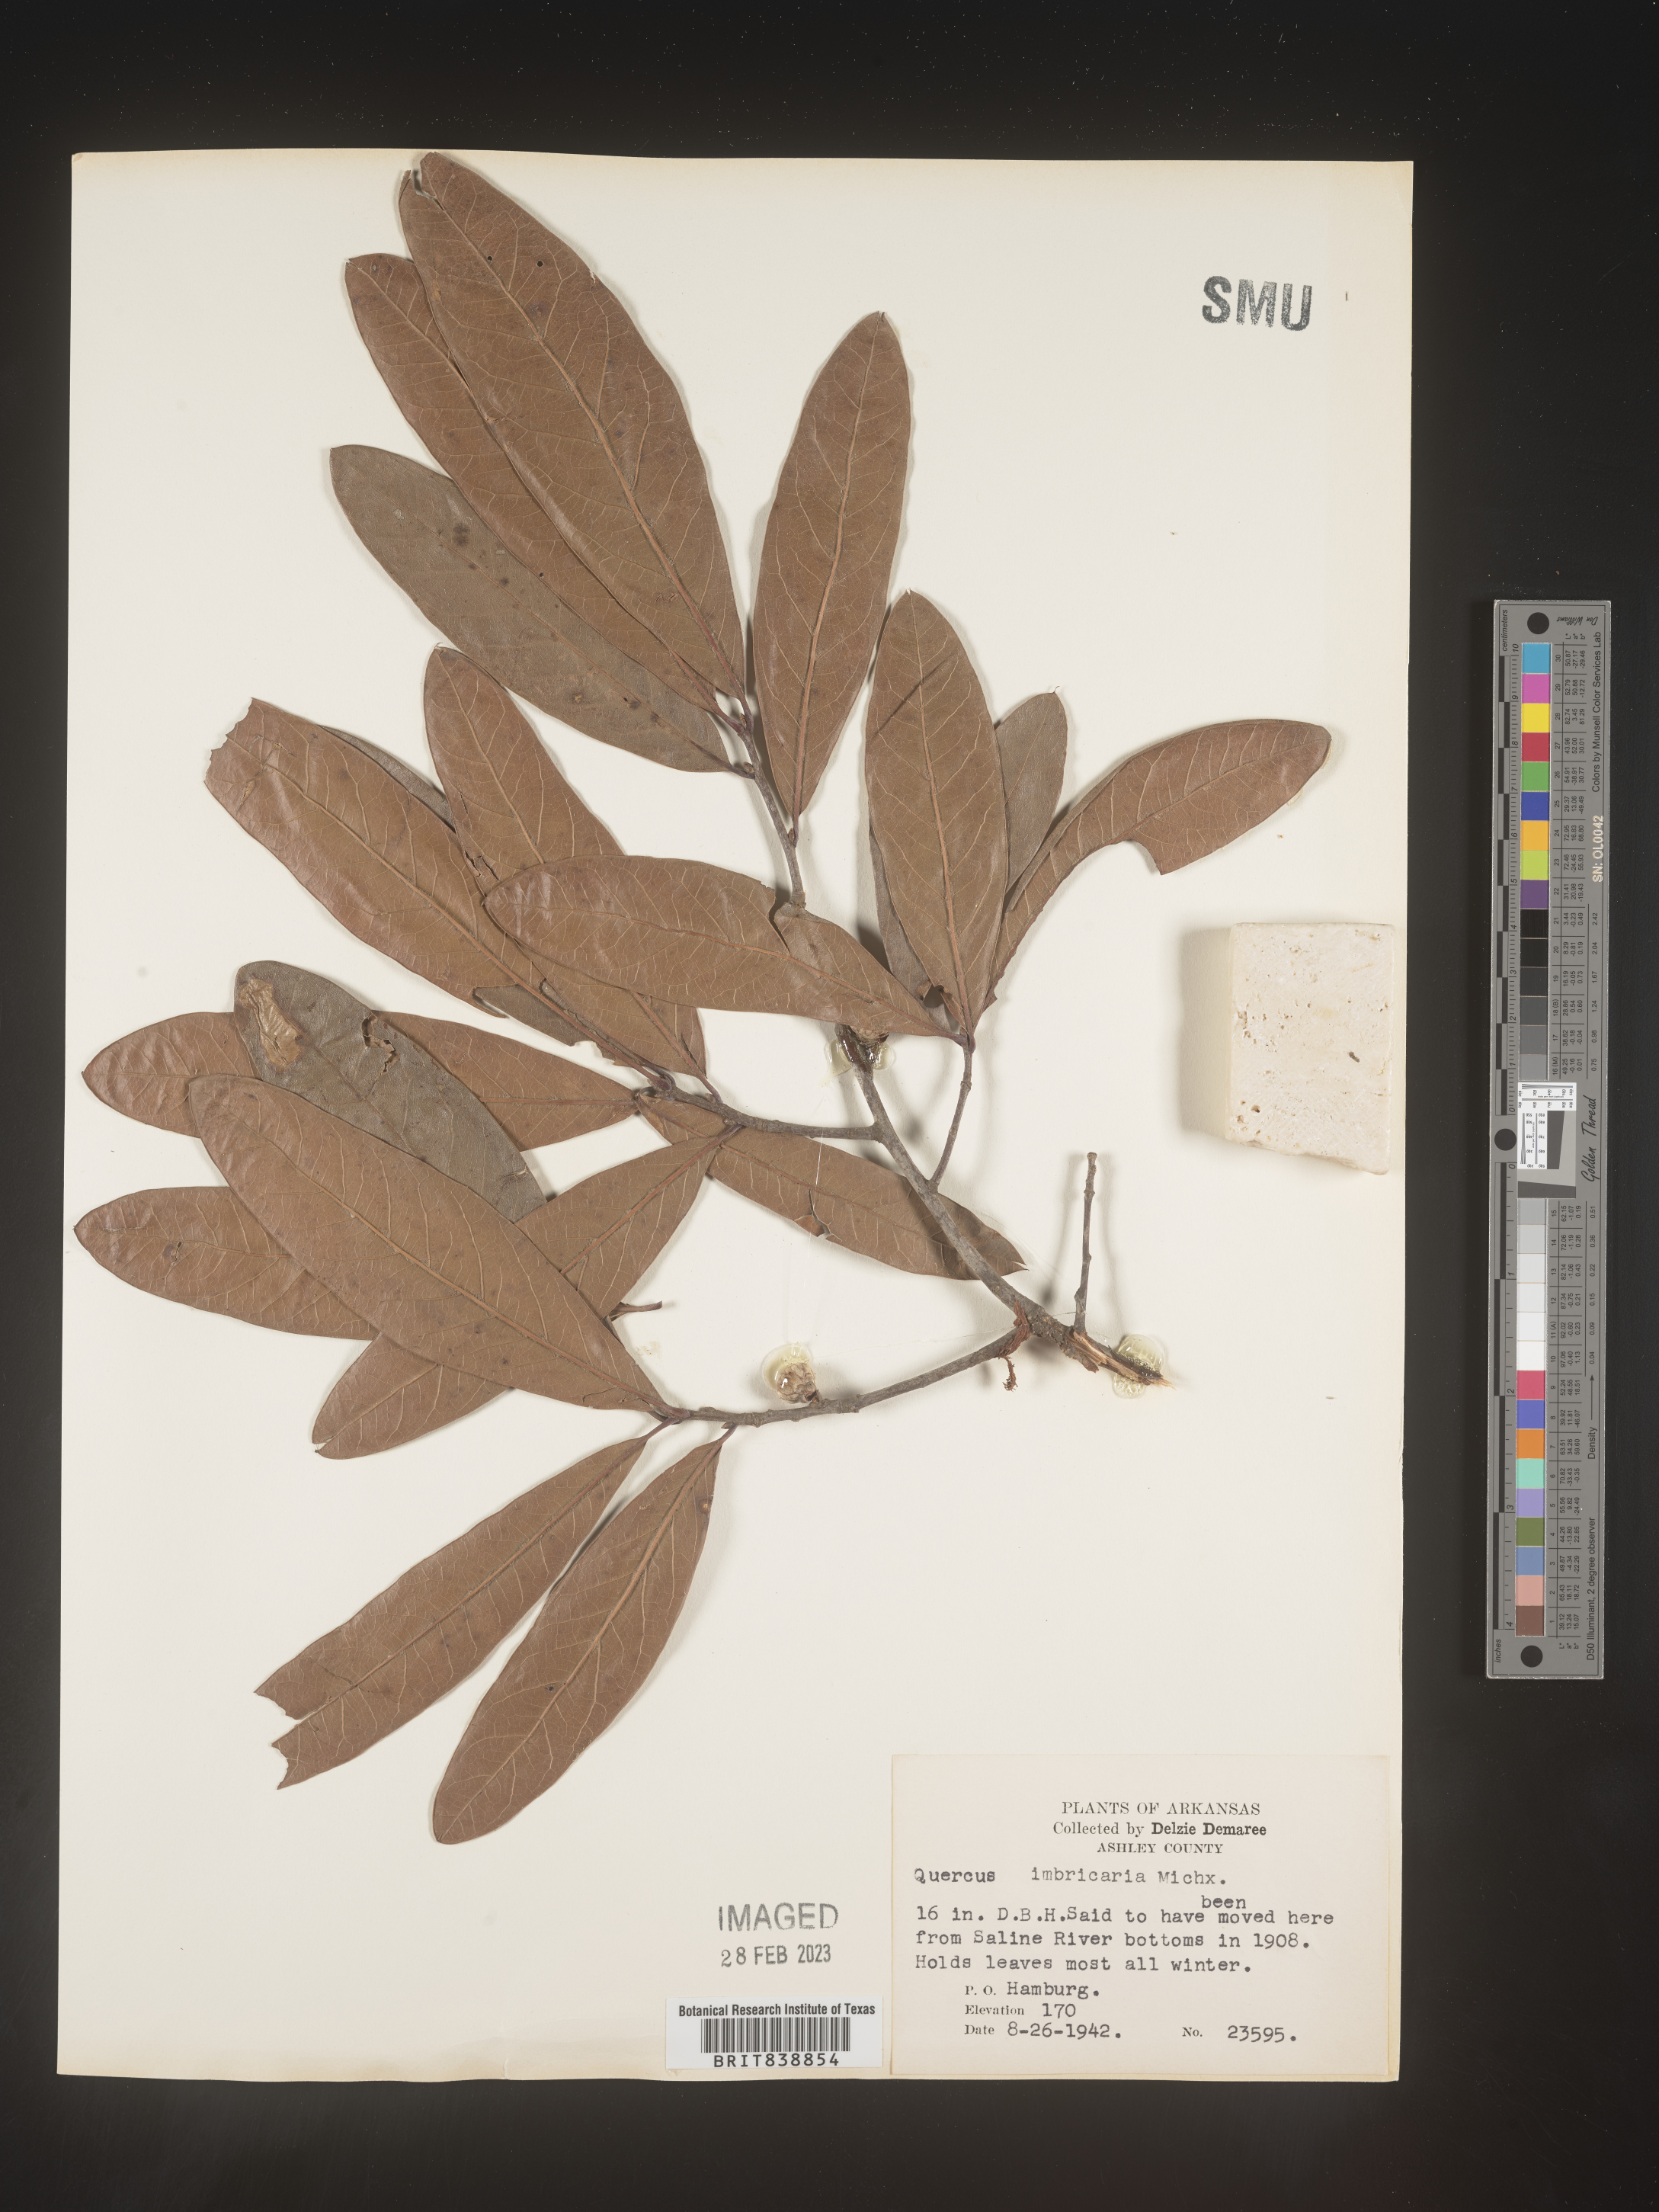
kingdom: Plantae
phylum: Tracheophyta
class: Magnoliopsida
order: Fagales
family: Fagaceae
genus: Quercus
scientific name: Quercus imbricaria
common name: Shingle oak
